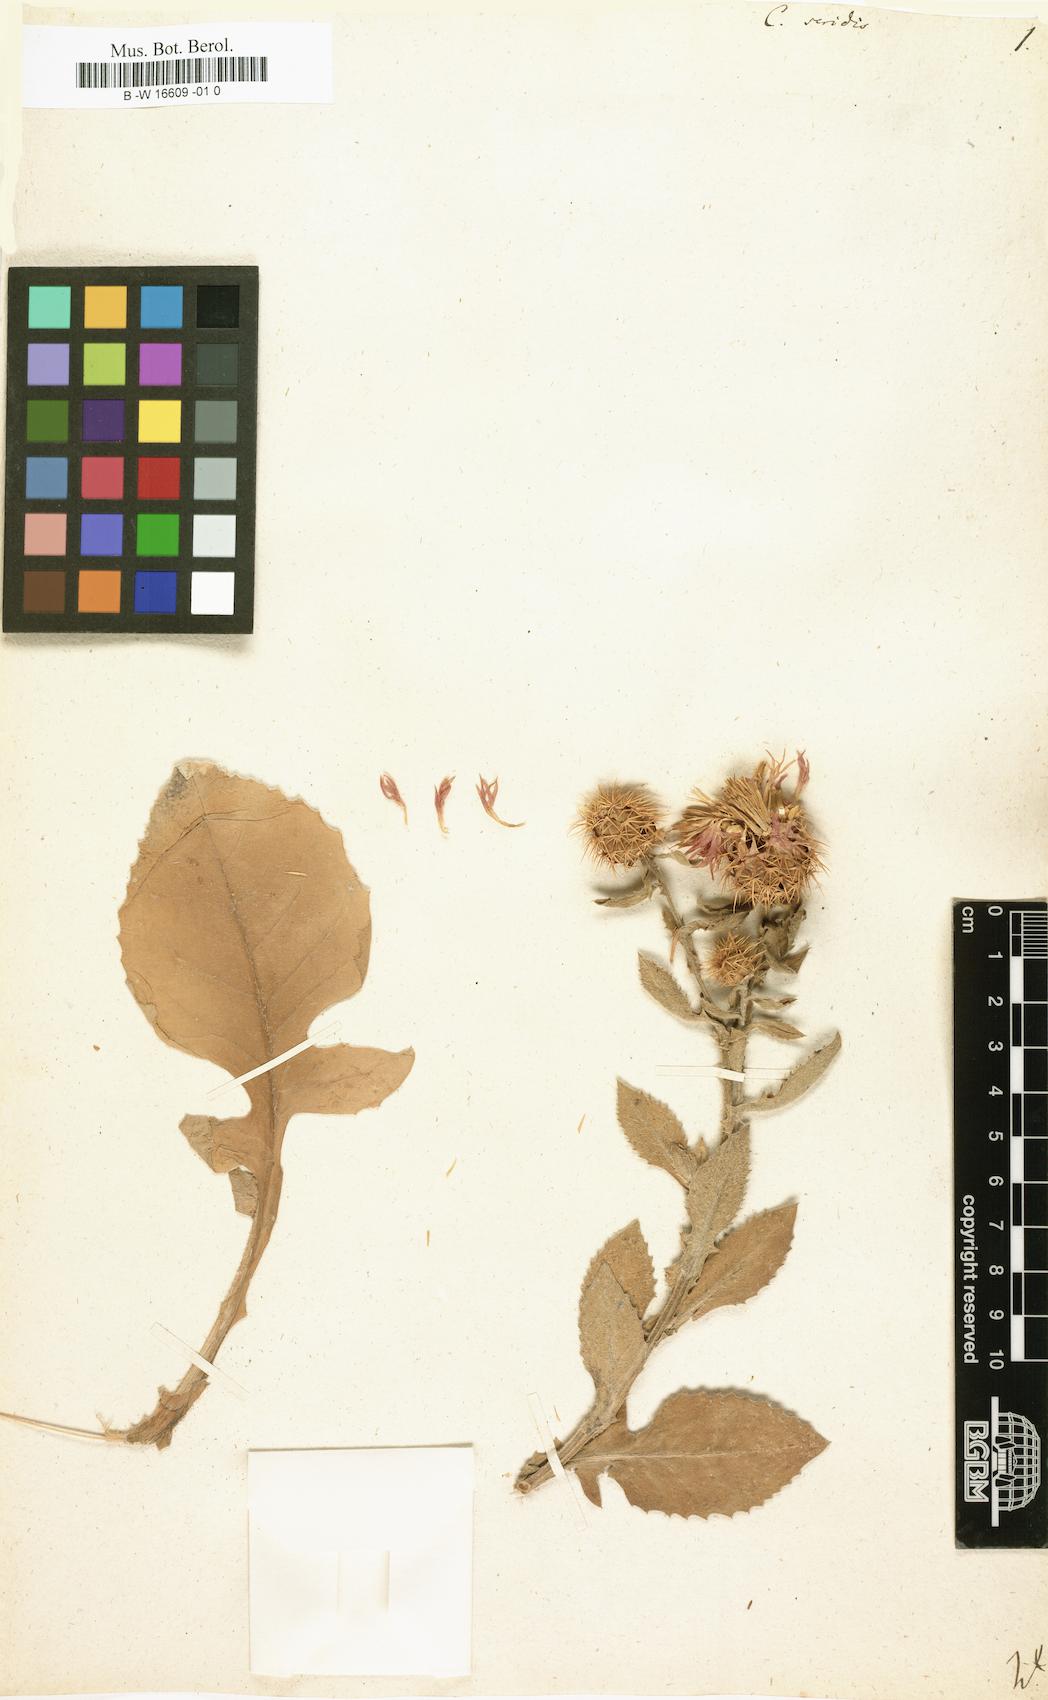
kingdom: Plantae
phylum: Tracheophyta
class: Magnoliopsida
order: Asterales
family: Asteraceae
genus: Centaurea
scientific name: Centaurea seridis
